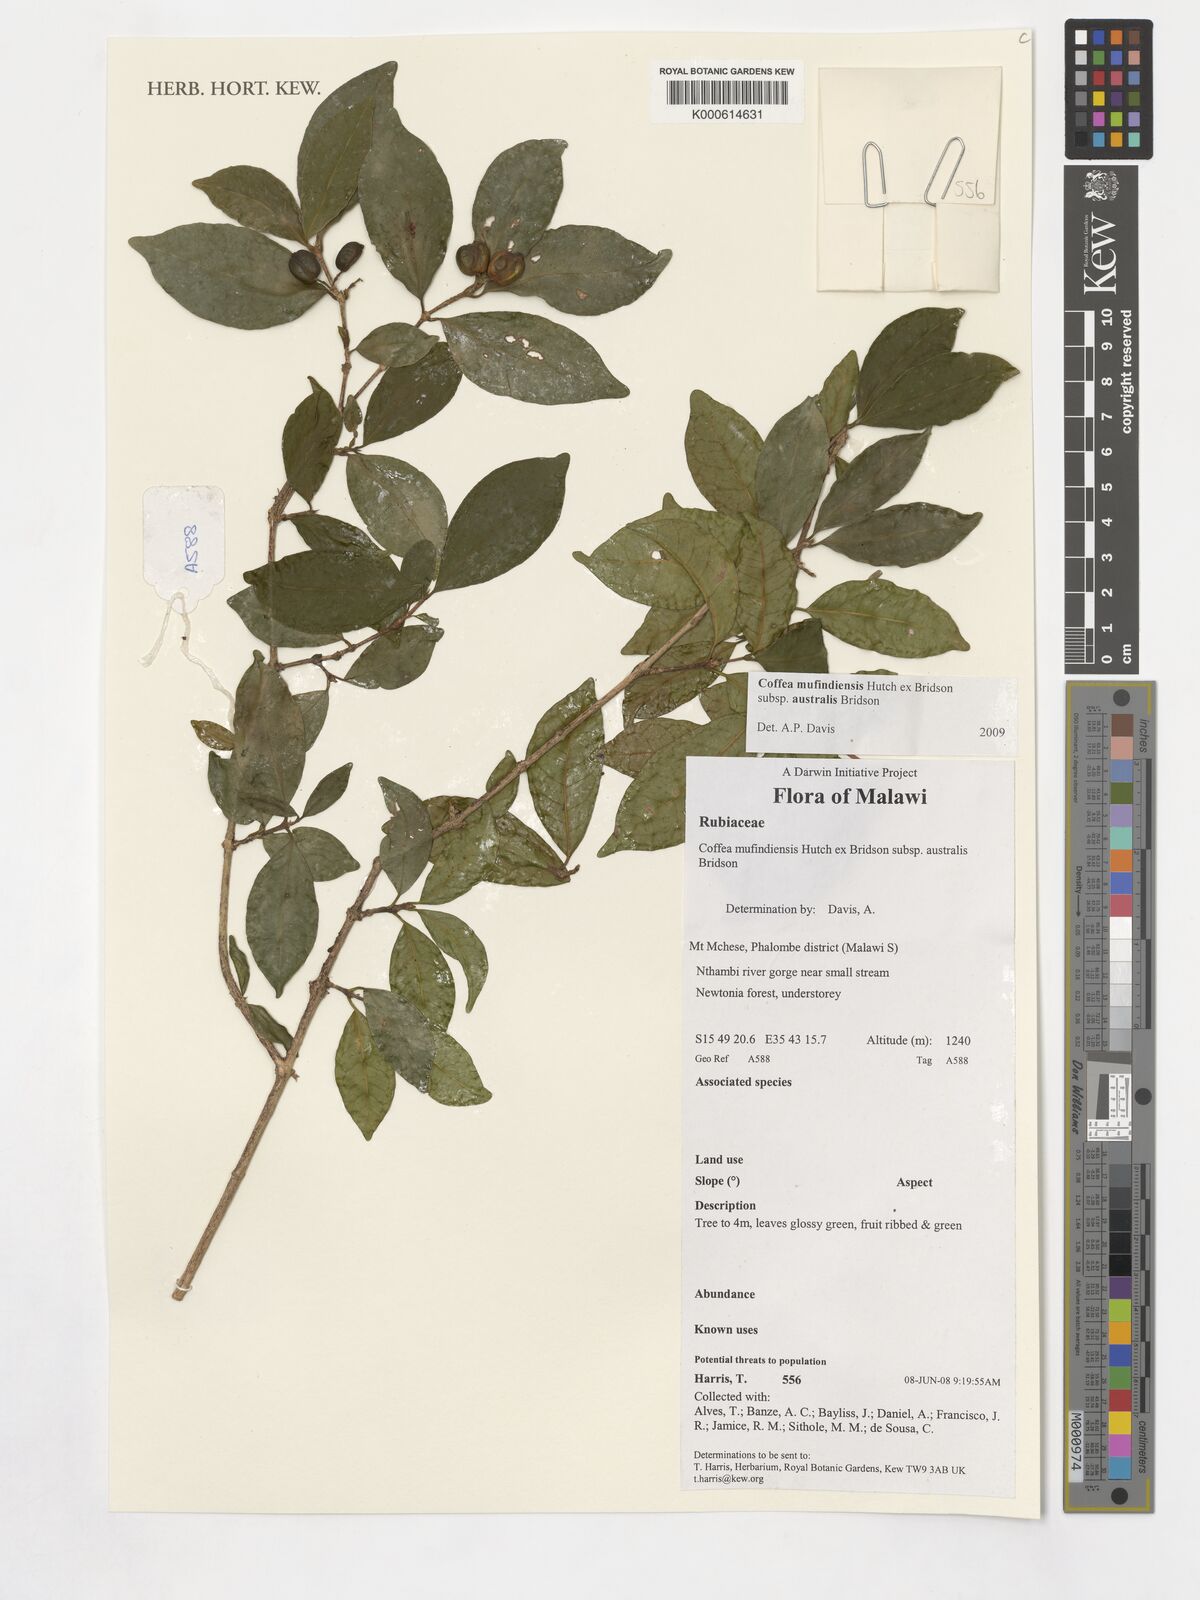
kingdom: Plantae
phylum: Tracheophyta
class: Magnoliopsida
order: Gentianales
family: Rubiaceae
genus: Coffea
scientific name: Coffea mufindiensis
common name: Wild coffee
